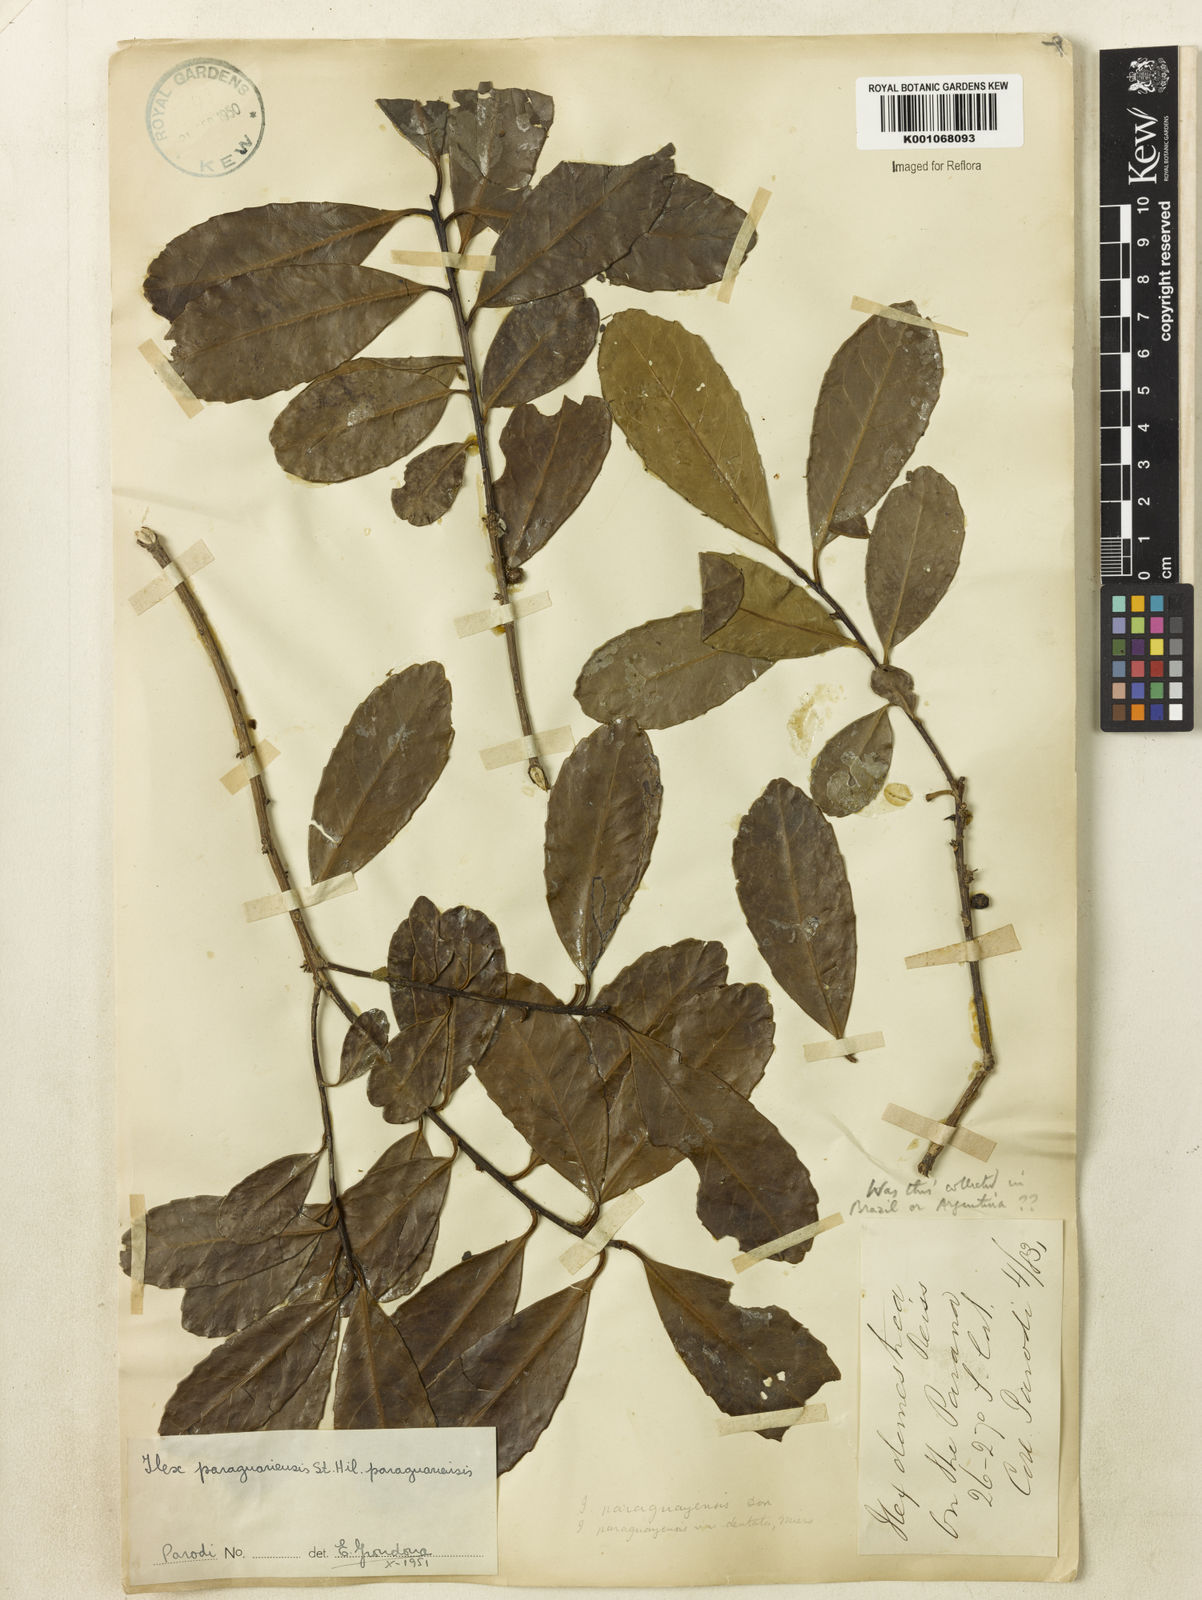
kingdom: Plantae
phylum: Tracheophyta
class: Magnoliopsida
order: Aquifoliales
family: Aquifoliaceae
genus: Ilex
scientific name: Ilex paraguariensis
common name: Paraguay tea
